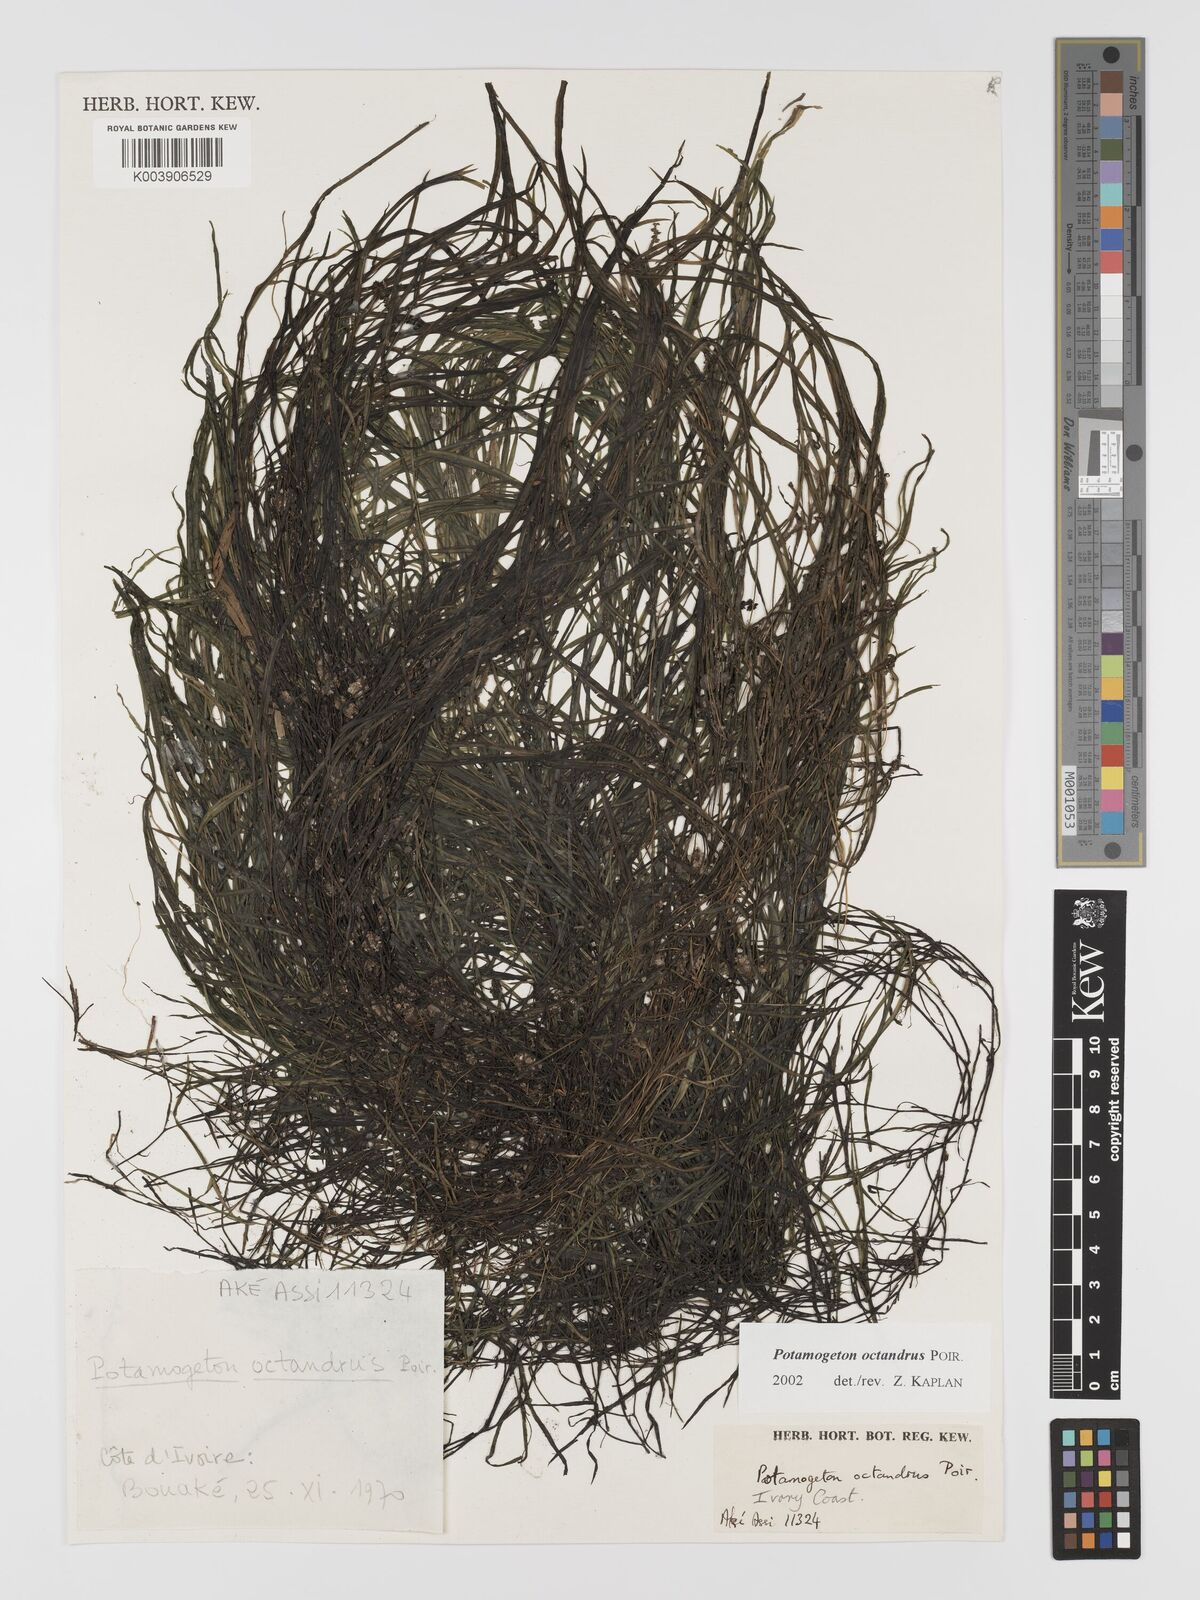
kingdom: Plantae
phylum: Tracheophyta
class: Liliopsida
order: Alismatales
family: Potamogetonaceae
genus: Potamogeton
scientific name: Potamogeton octandrus
